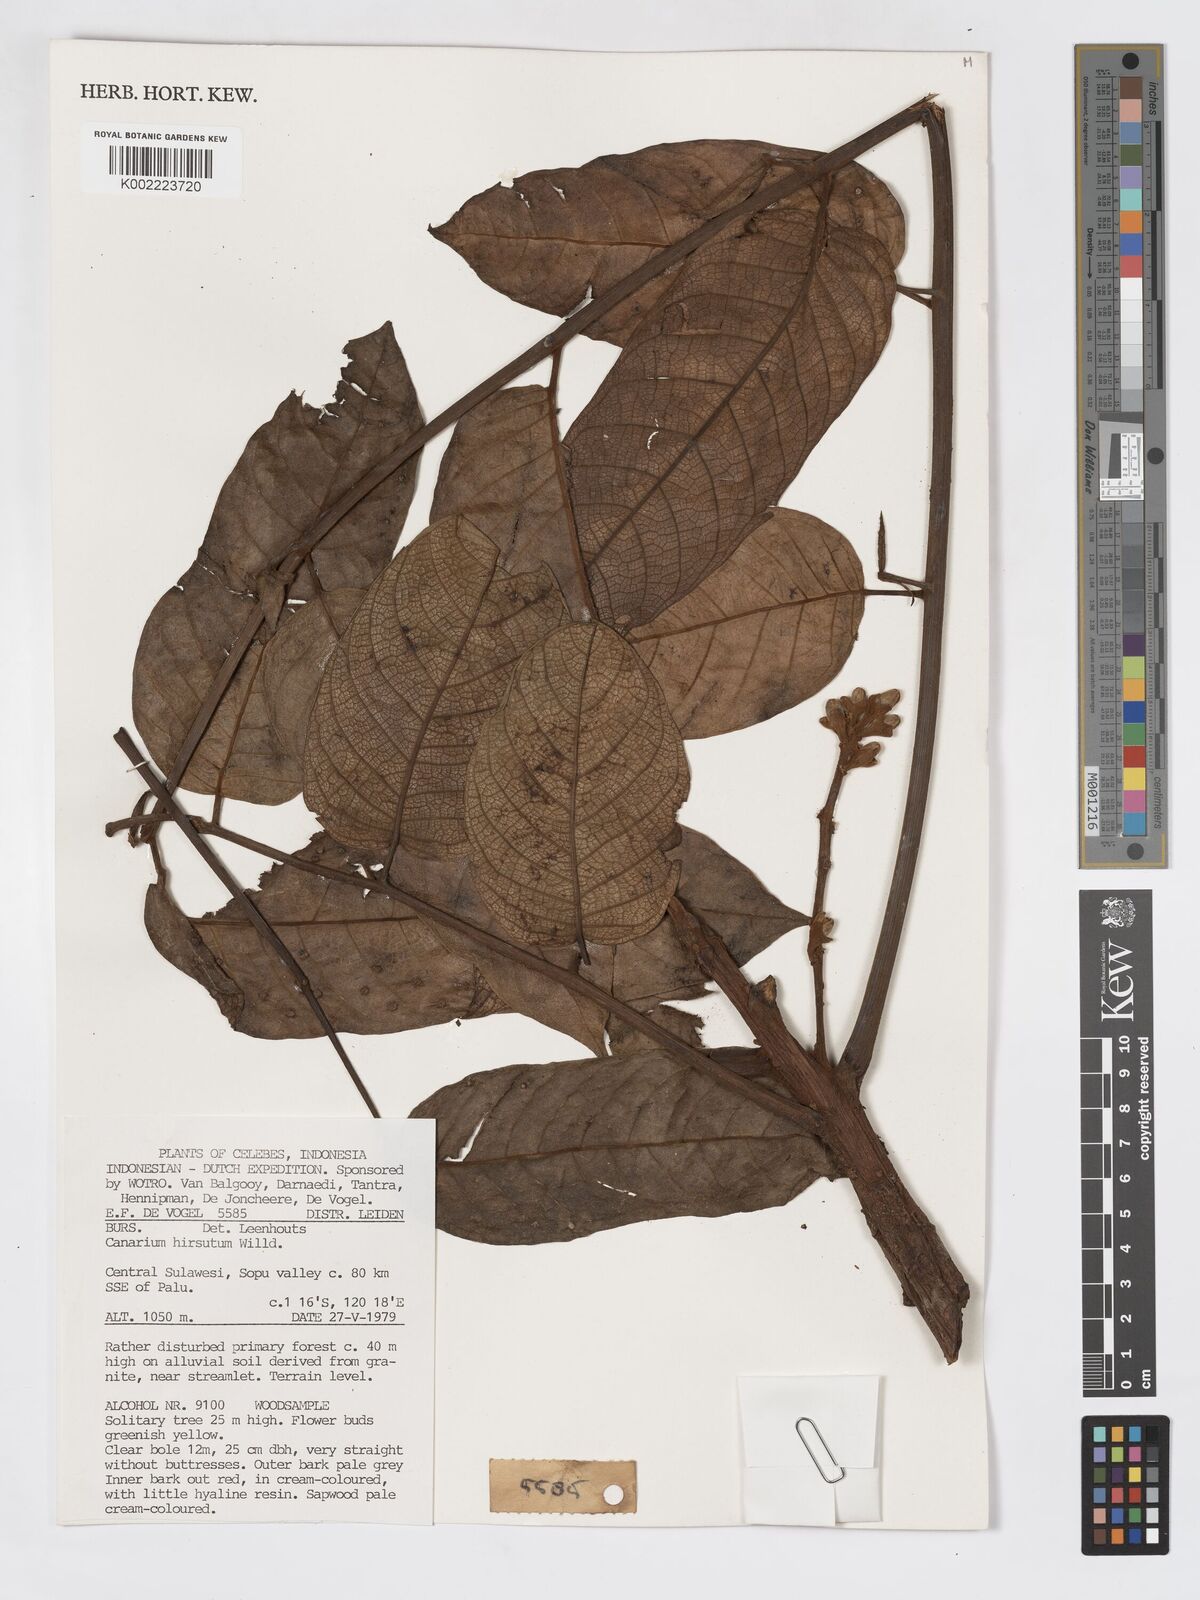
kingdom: Plantae
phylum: Tracheophyta
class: Magnoliopsida
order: Sapindales
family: Burseraceae
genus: Canarium
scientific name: Canarium hirsutum
